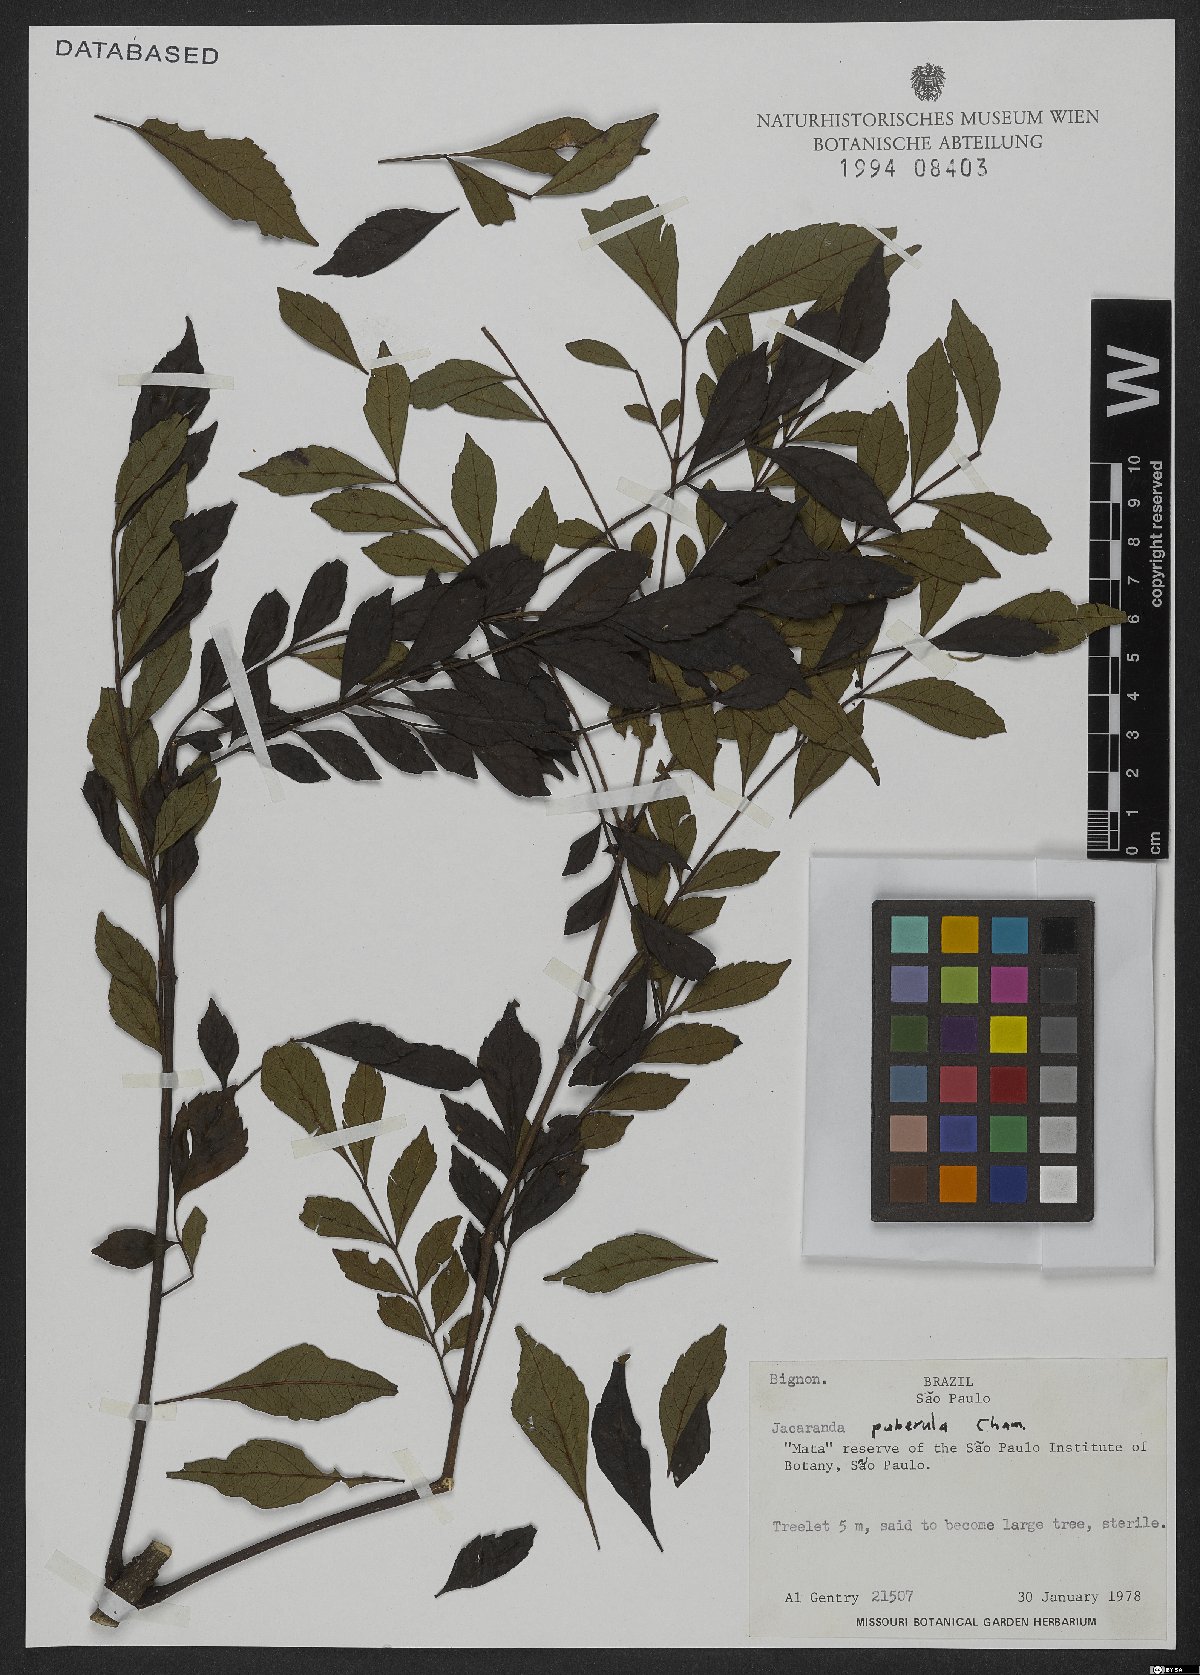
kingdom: Plantae
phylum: Tracheophyta
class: Magnoliopsida
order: Lamiales
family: Bignoniaceae
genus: Jacaranda
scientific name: Jacaranda puberula
